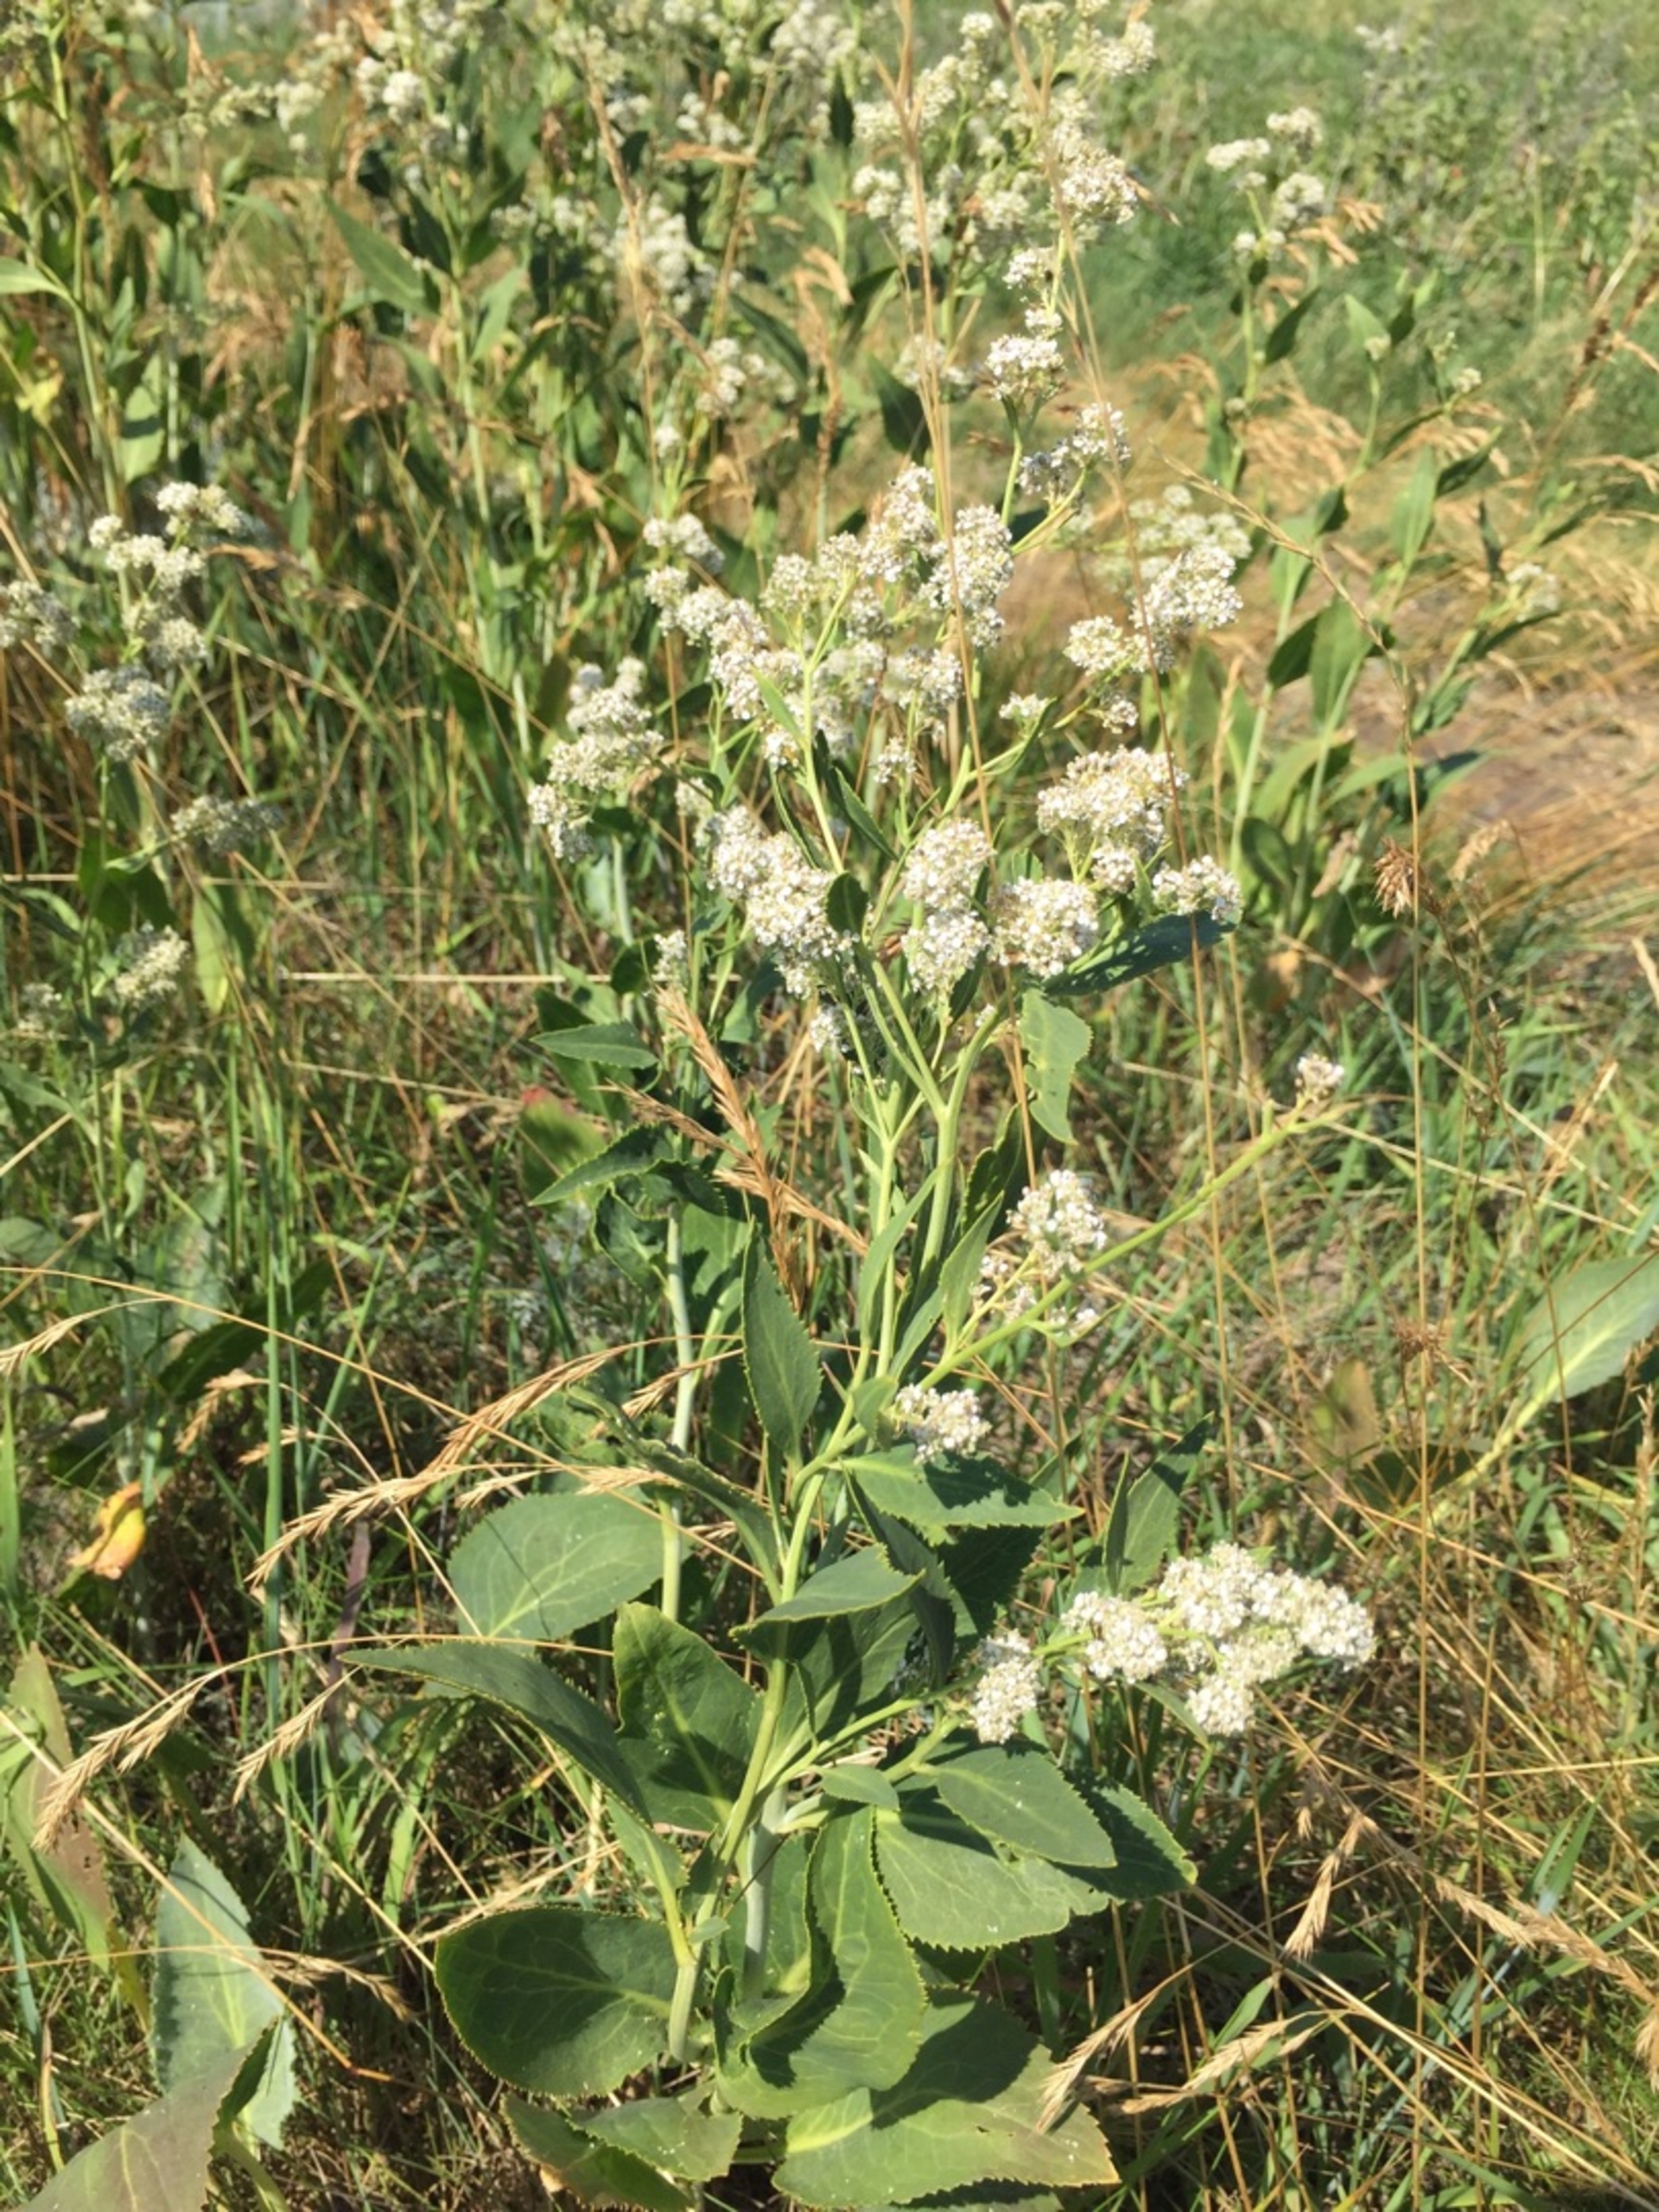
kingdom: Plantae
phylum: Tracheophyta
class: Magnoliopsida
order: Brassicales
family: Brassicaceae
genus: Lepidium
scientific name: Lepidium latifolium
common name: Strand-karse
